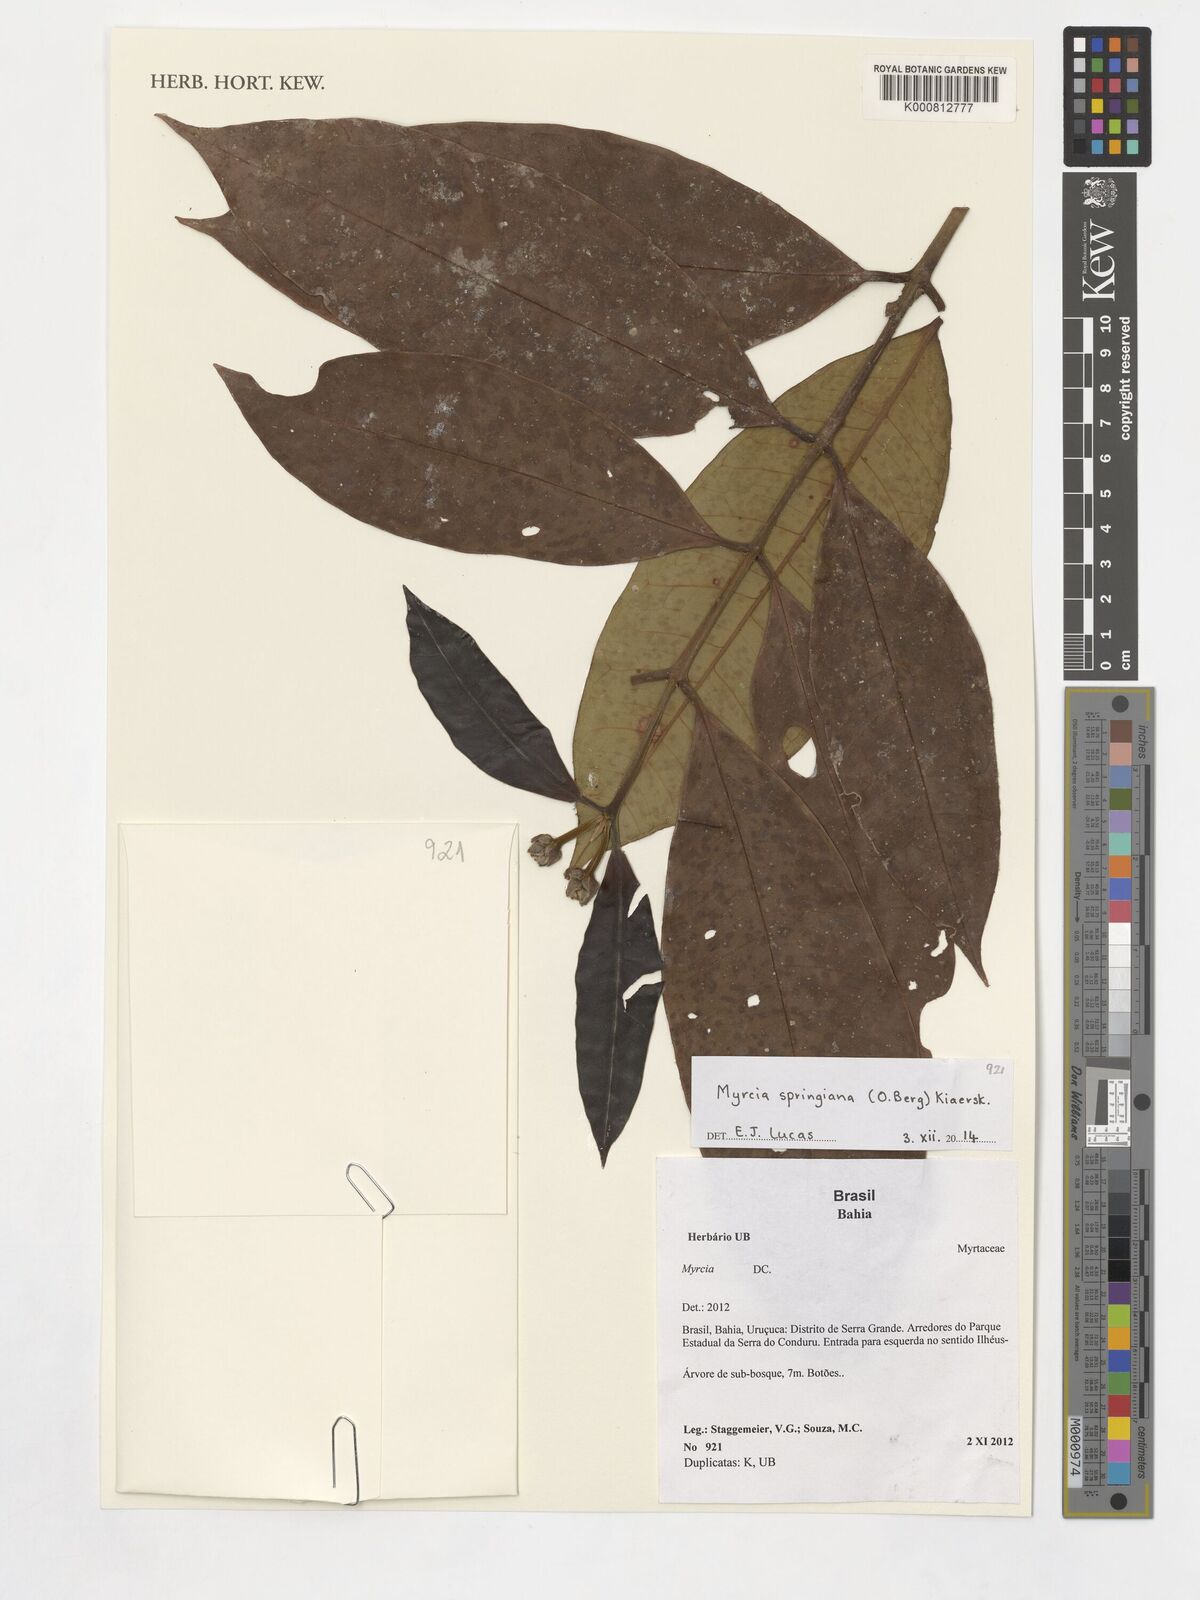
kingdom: Plantae
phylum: Tracheophyta
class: Magnoliopsida
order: Myrtales
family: Myrtaceae
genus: Myrcia
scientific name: Myrcia springiana
